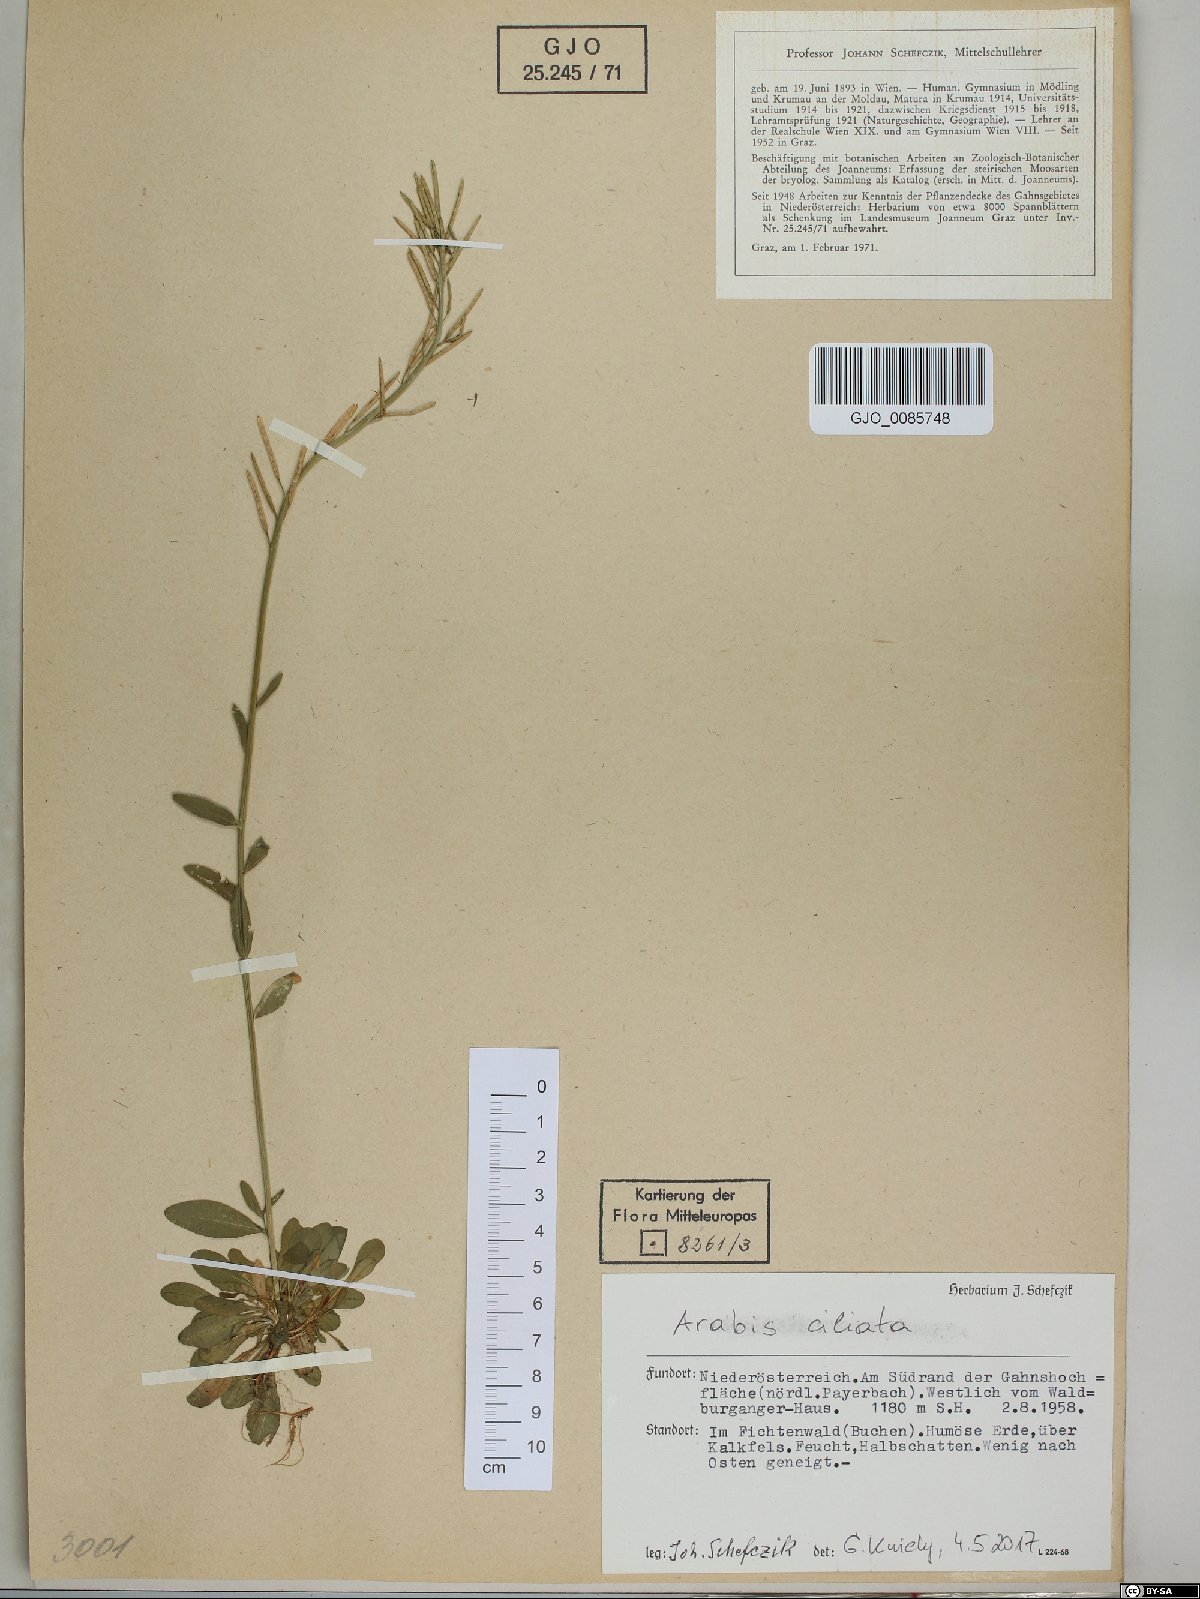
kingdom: Plantae
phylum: Tracheophyta
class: Magnoliopsida
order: Brassicales
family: Brassicaceae
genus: Arabis
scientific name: Arabis ciliata
